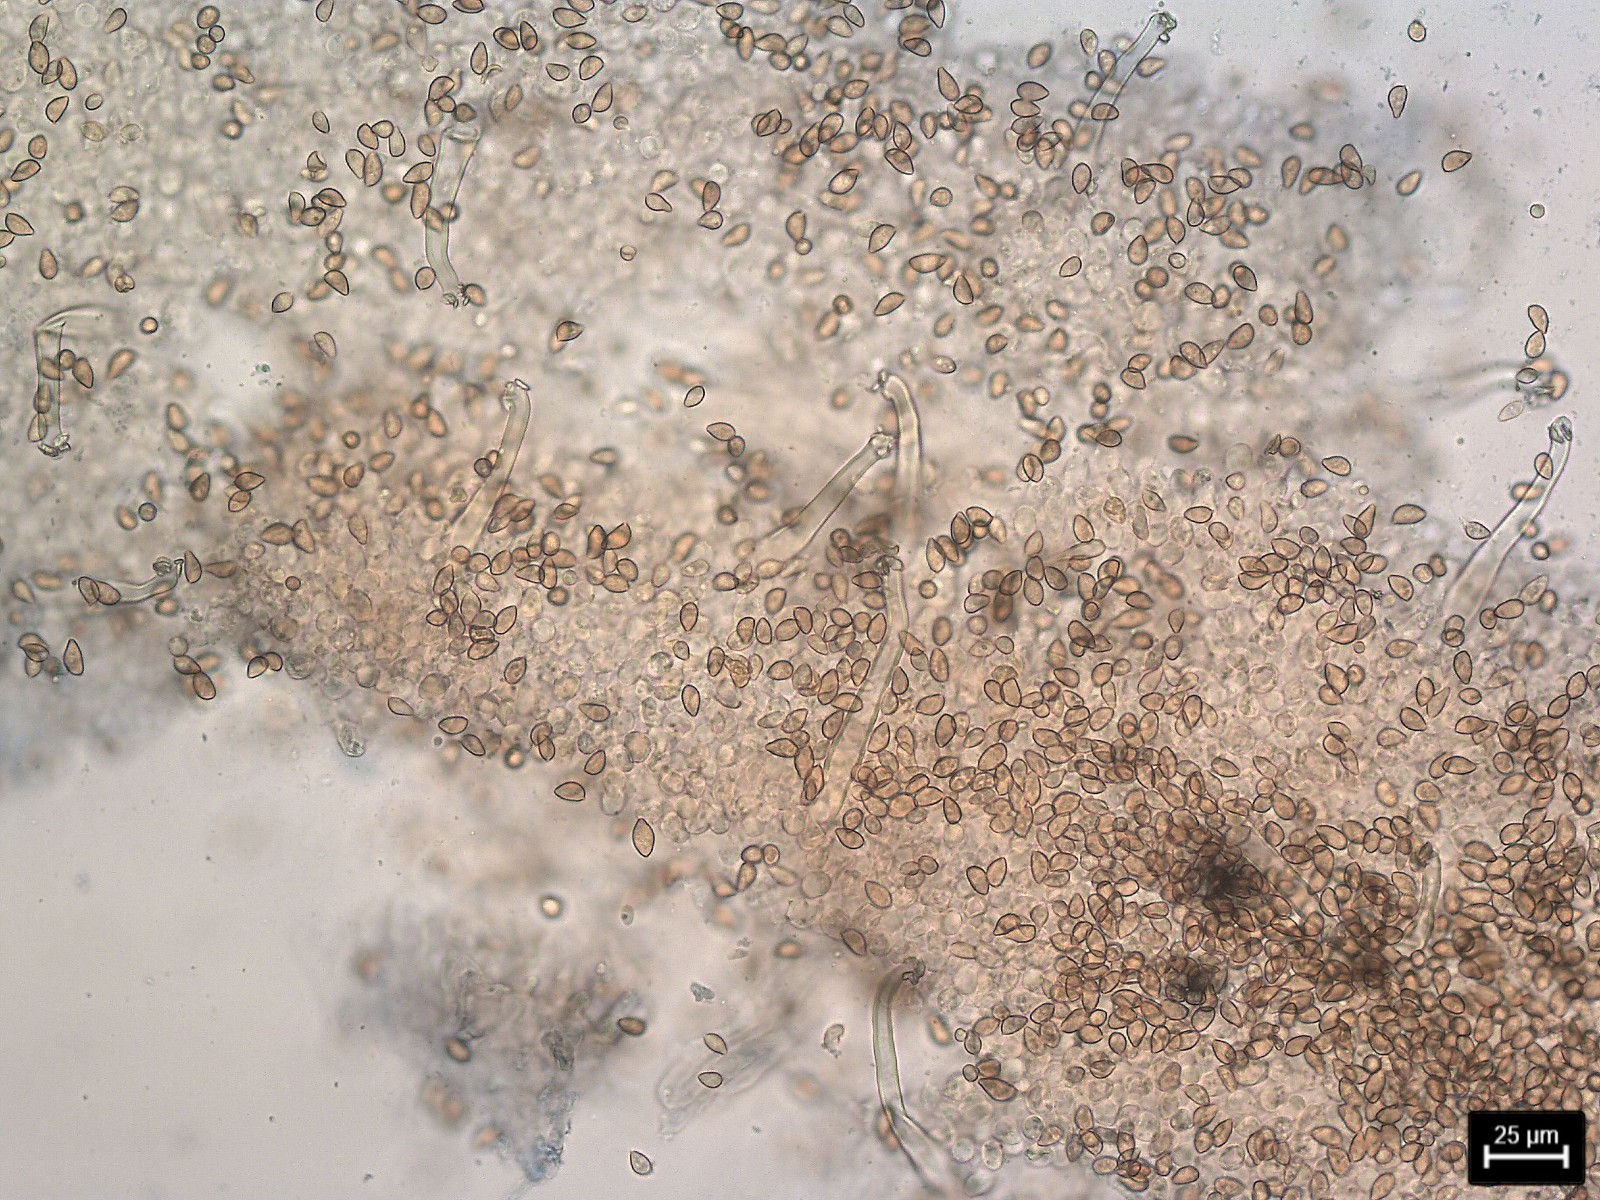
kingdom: Fungi
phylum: Basidiomycota
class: Agaricomycetes
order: Agaricales
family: Inocybaceae
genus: Inocybe
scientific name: Inocybe cincinnata
